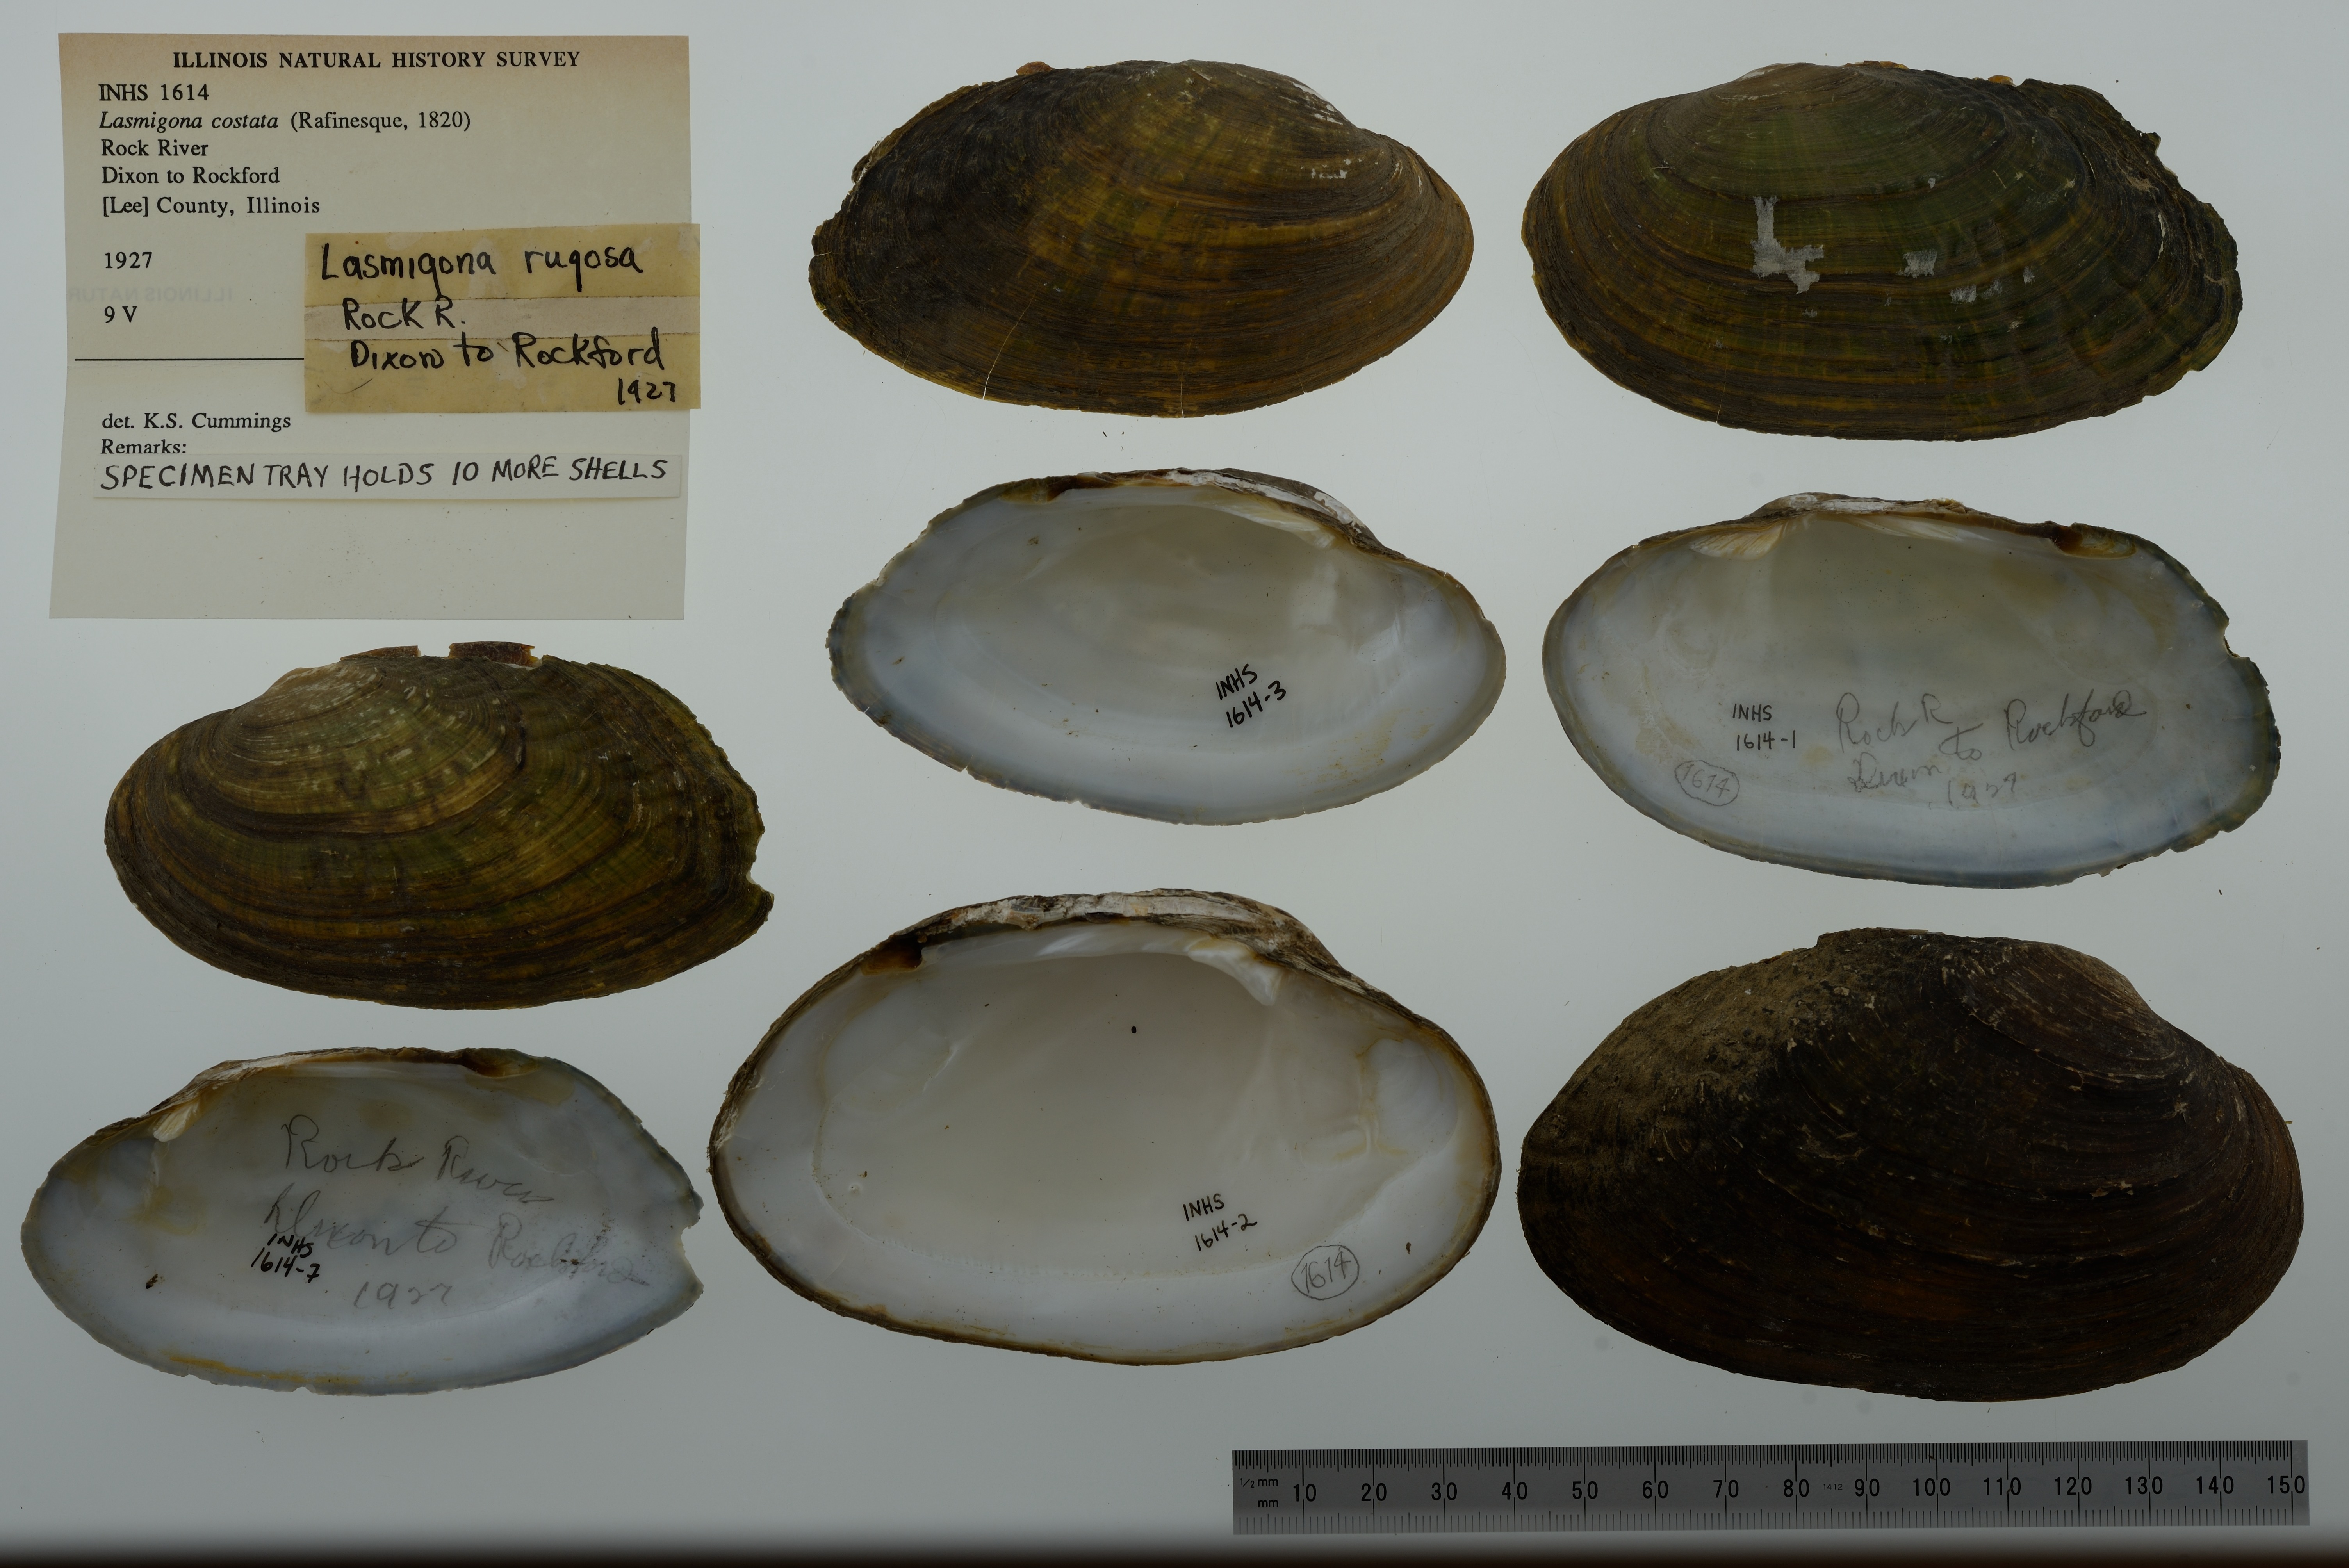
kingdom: Animalia
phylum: Mollusca
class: Bivalvia
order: Unionida
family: Unionidae
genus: Lasmigona
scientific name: Lasmigona costata
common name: Flutedshell
